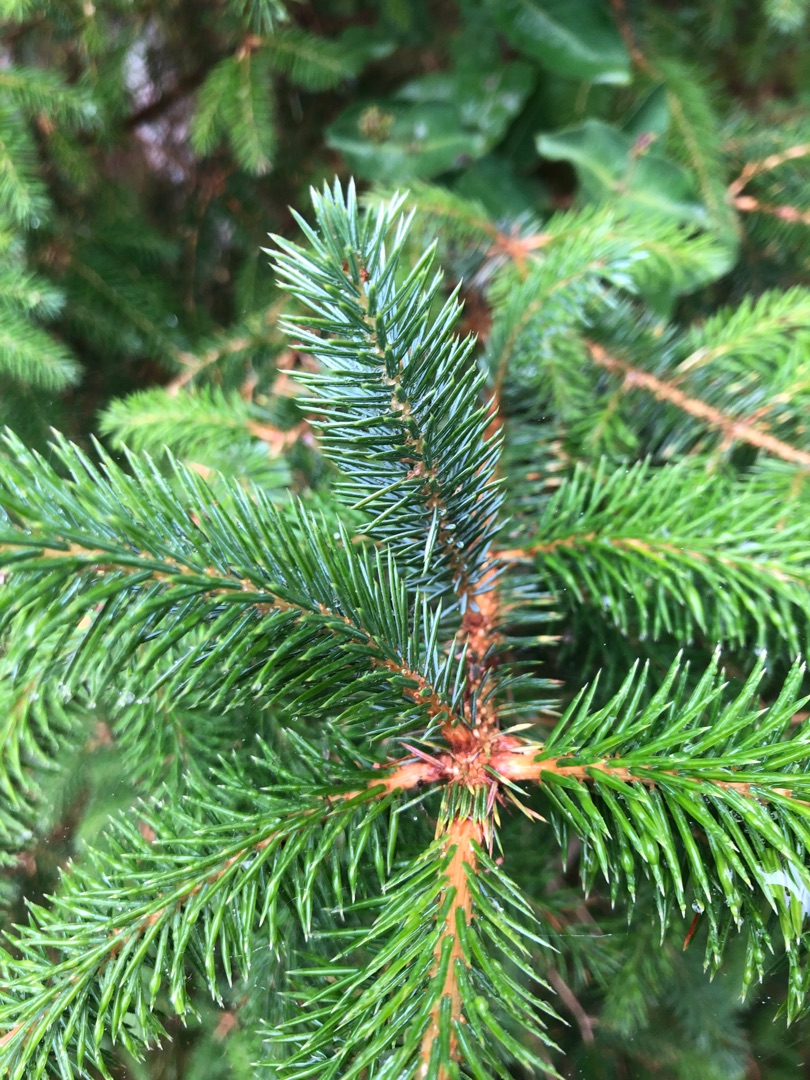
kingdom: Plantae
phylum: Tracheophyta
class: Pinopsida
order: Pinales
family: Pinaceae
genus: Picea
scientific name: Picea sitchensis
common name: Sitka-gran
